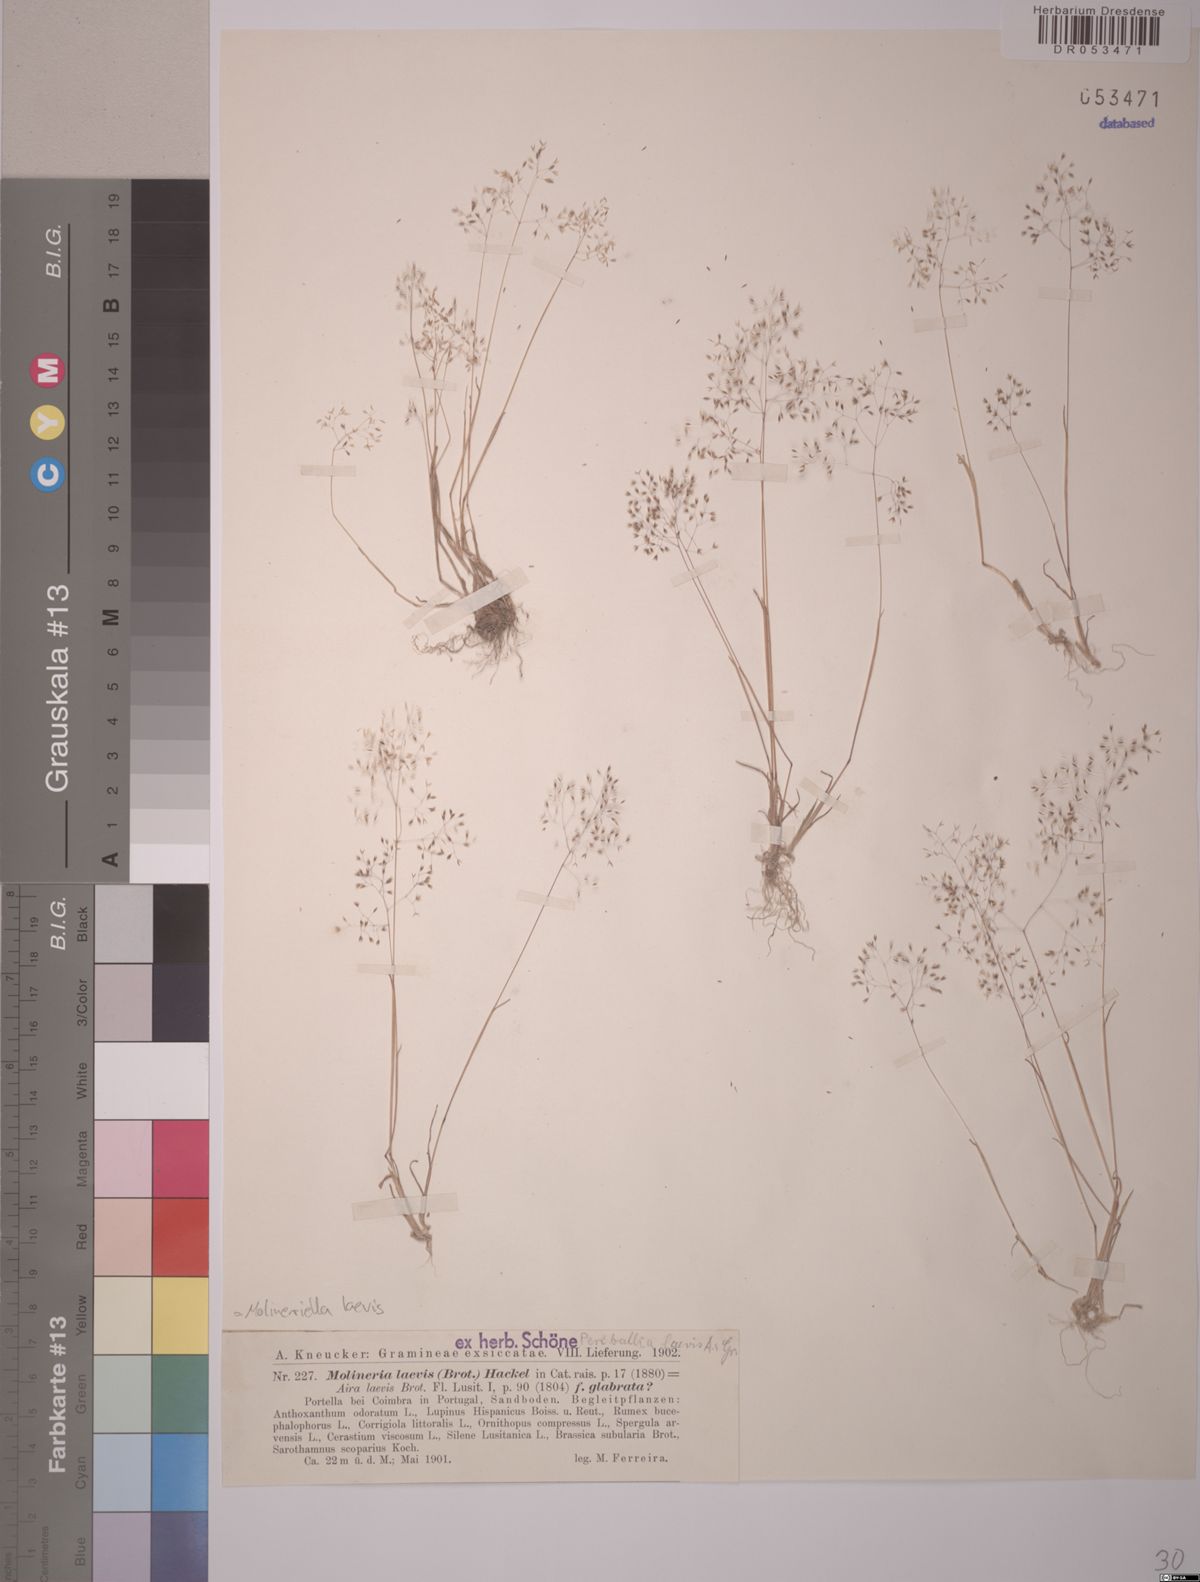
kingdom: Plantae
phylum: Tracheophyta
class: Liliopsida
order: Poales
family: Poaceae
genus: Molineriella
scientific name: Molineriella laevis
